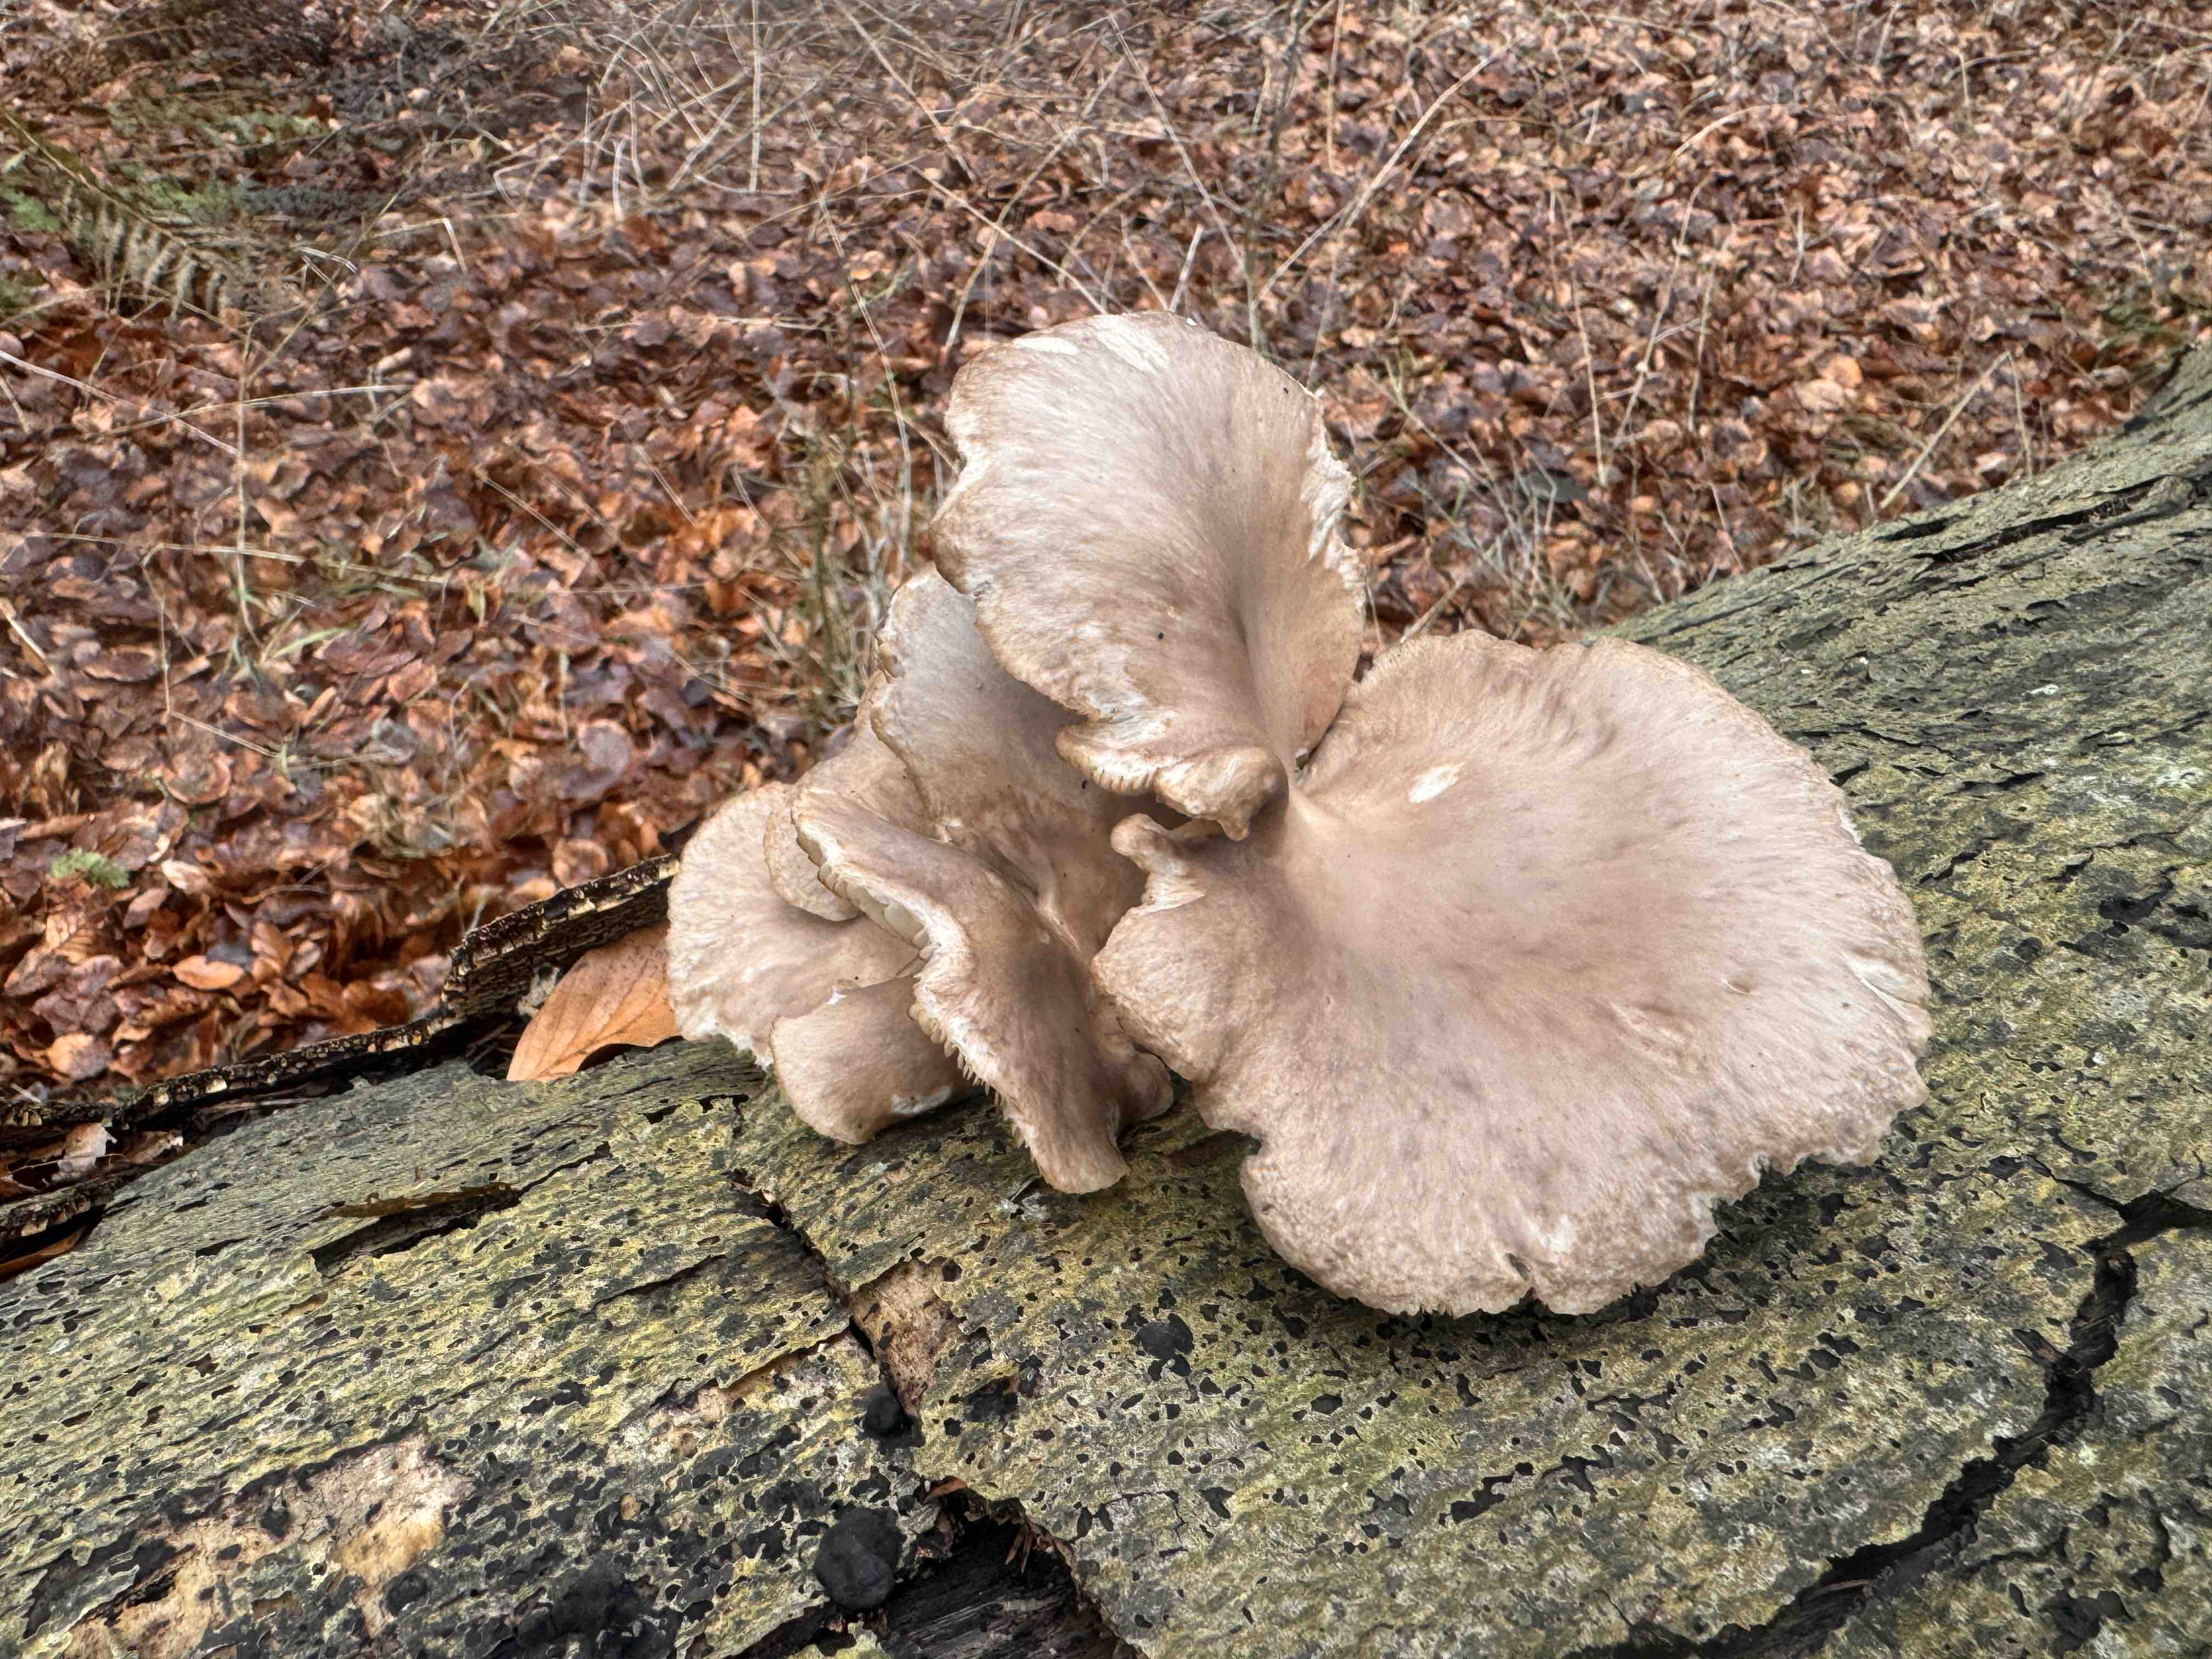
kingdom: Fungi
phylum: Basidiomycota
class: Agaricomycetes
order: Agaricales
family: Pleurotaceae
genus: Pleurotus
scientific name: Pleurotus ostreatus
